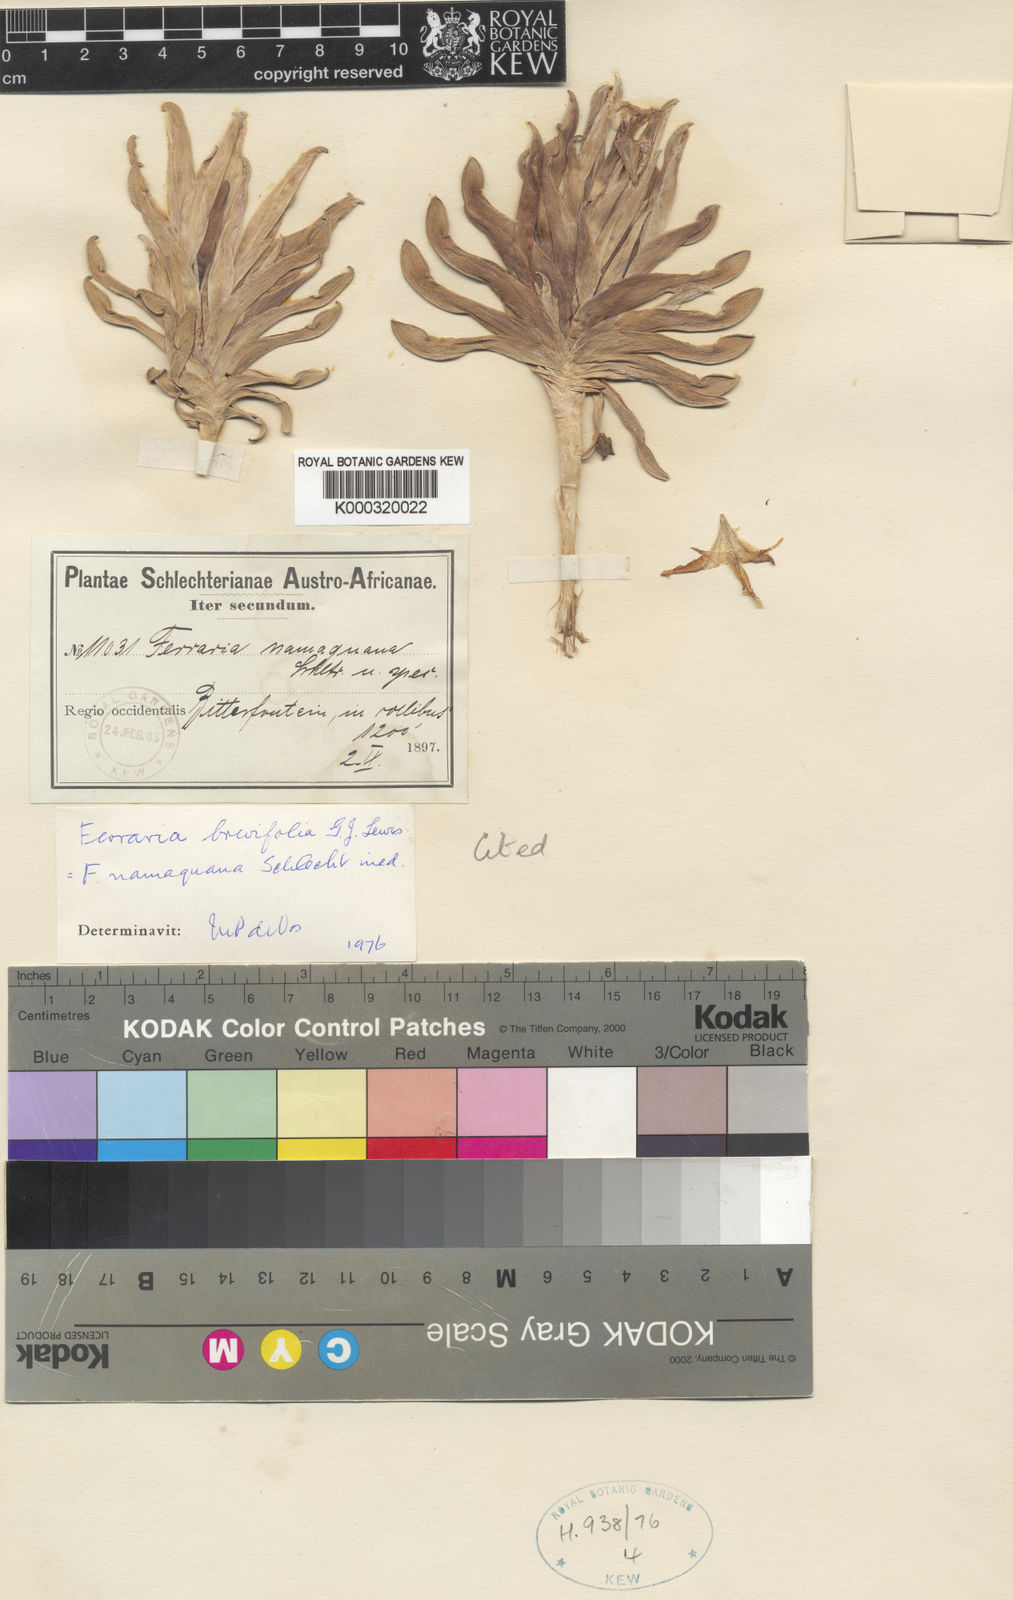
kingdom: Plantae
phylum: Tracheophyta
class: Liliopsida
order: Asparagales
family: Iridaceae
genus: Ferraria
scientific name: Ferraria brevifolia
